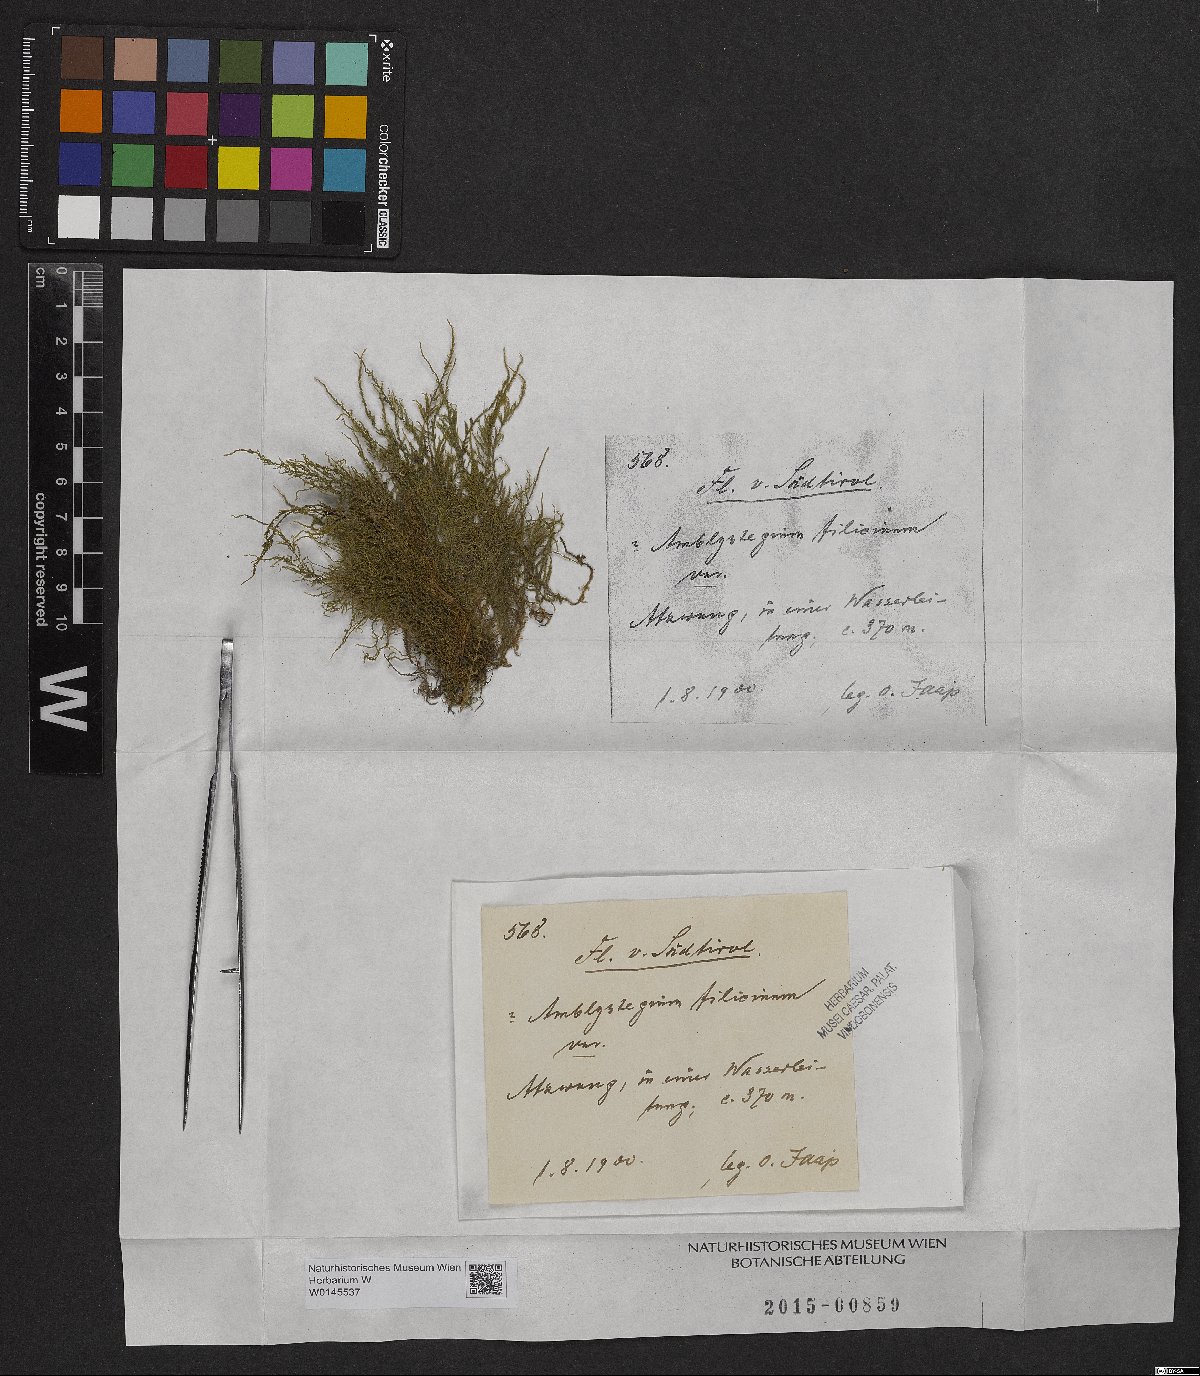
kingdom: Plantae
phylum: Bryophyta
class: Bryopsida
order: Hypnales
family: Amblystegiaceae
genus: Cratoneuron
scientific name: Cratoneuron filicinum
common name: Fern-leaved hook moss
